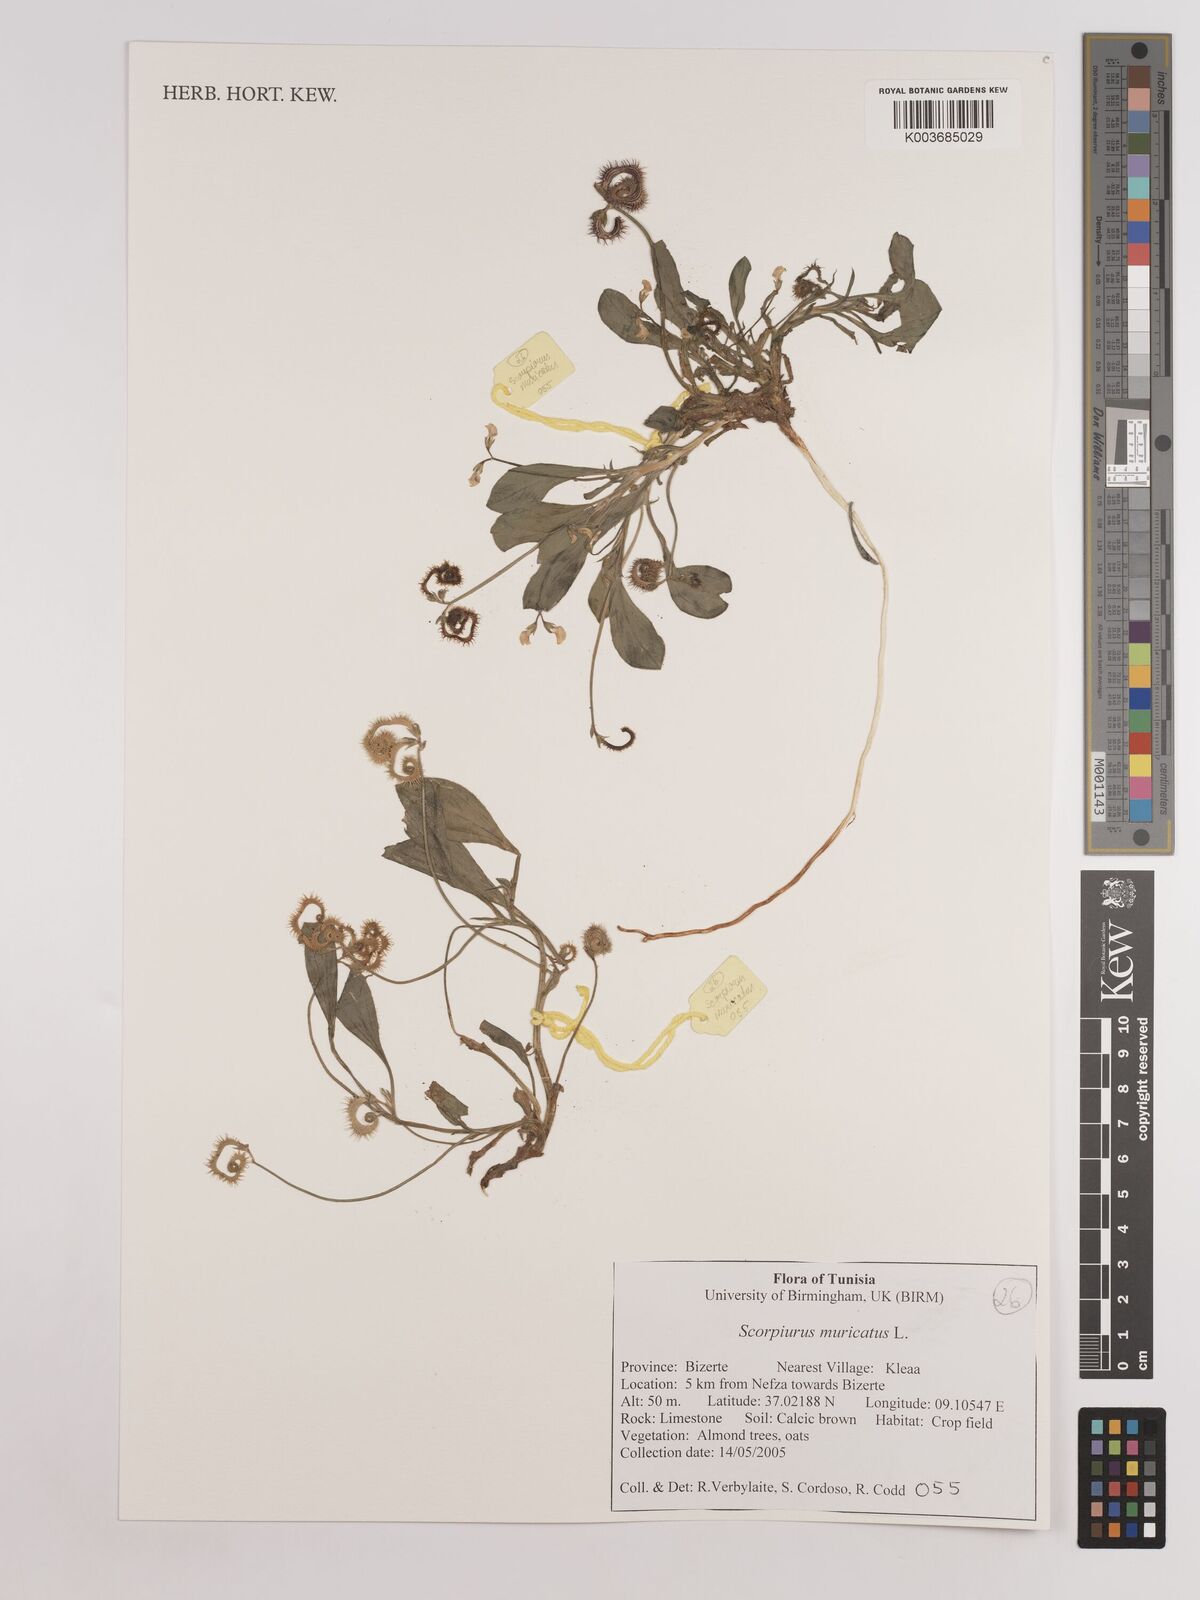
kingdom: Plantae
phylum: Tracheophyta
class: Magnoliopsida
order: Fabales
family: Fabaceae
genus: Scorpiurus
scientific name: Scorpiurus muricatus
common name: Caterpillar-plant
